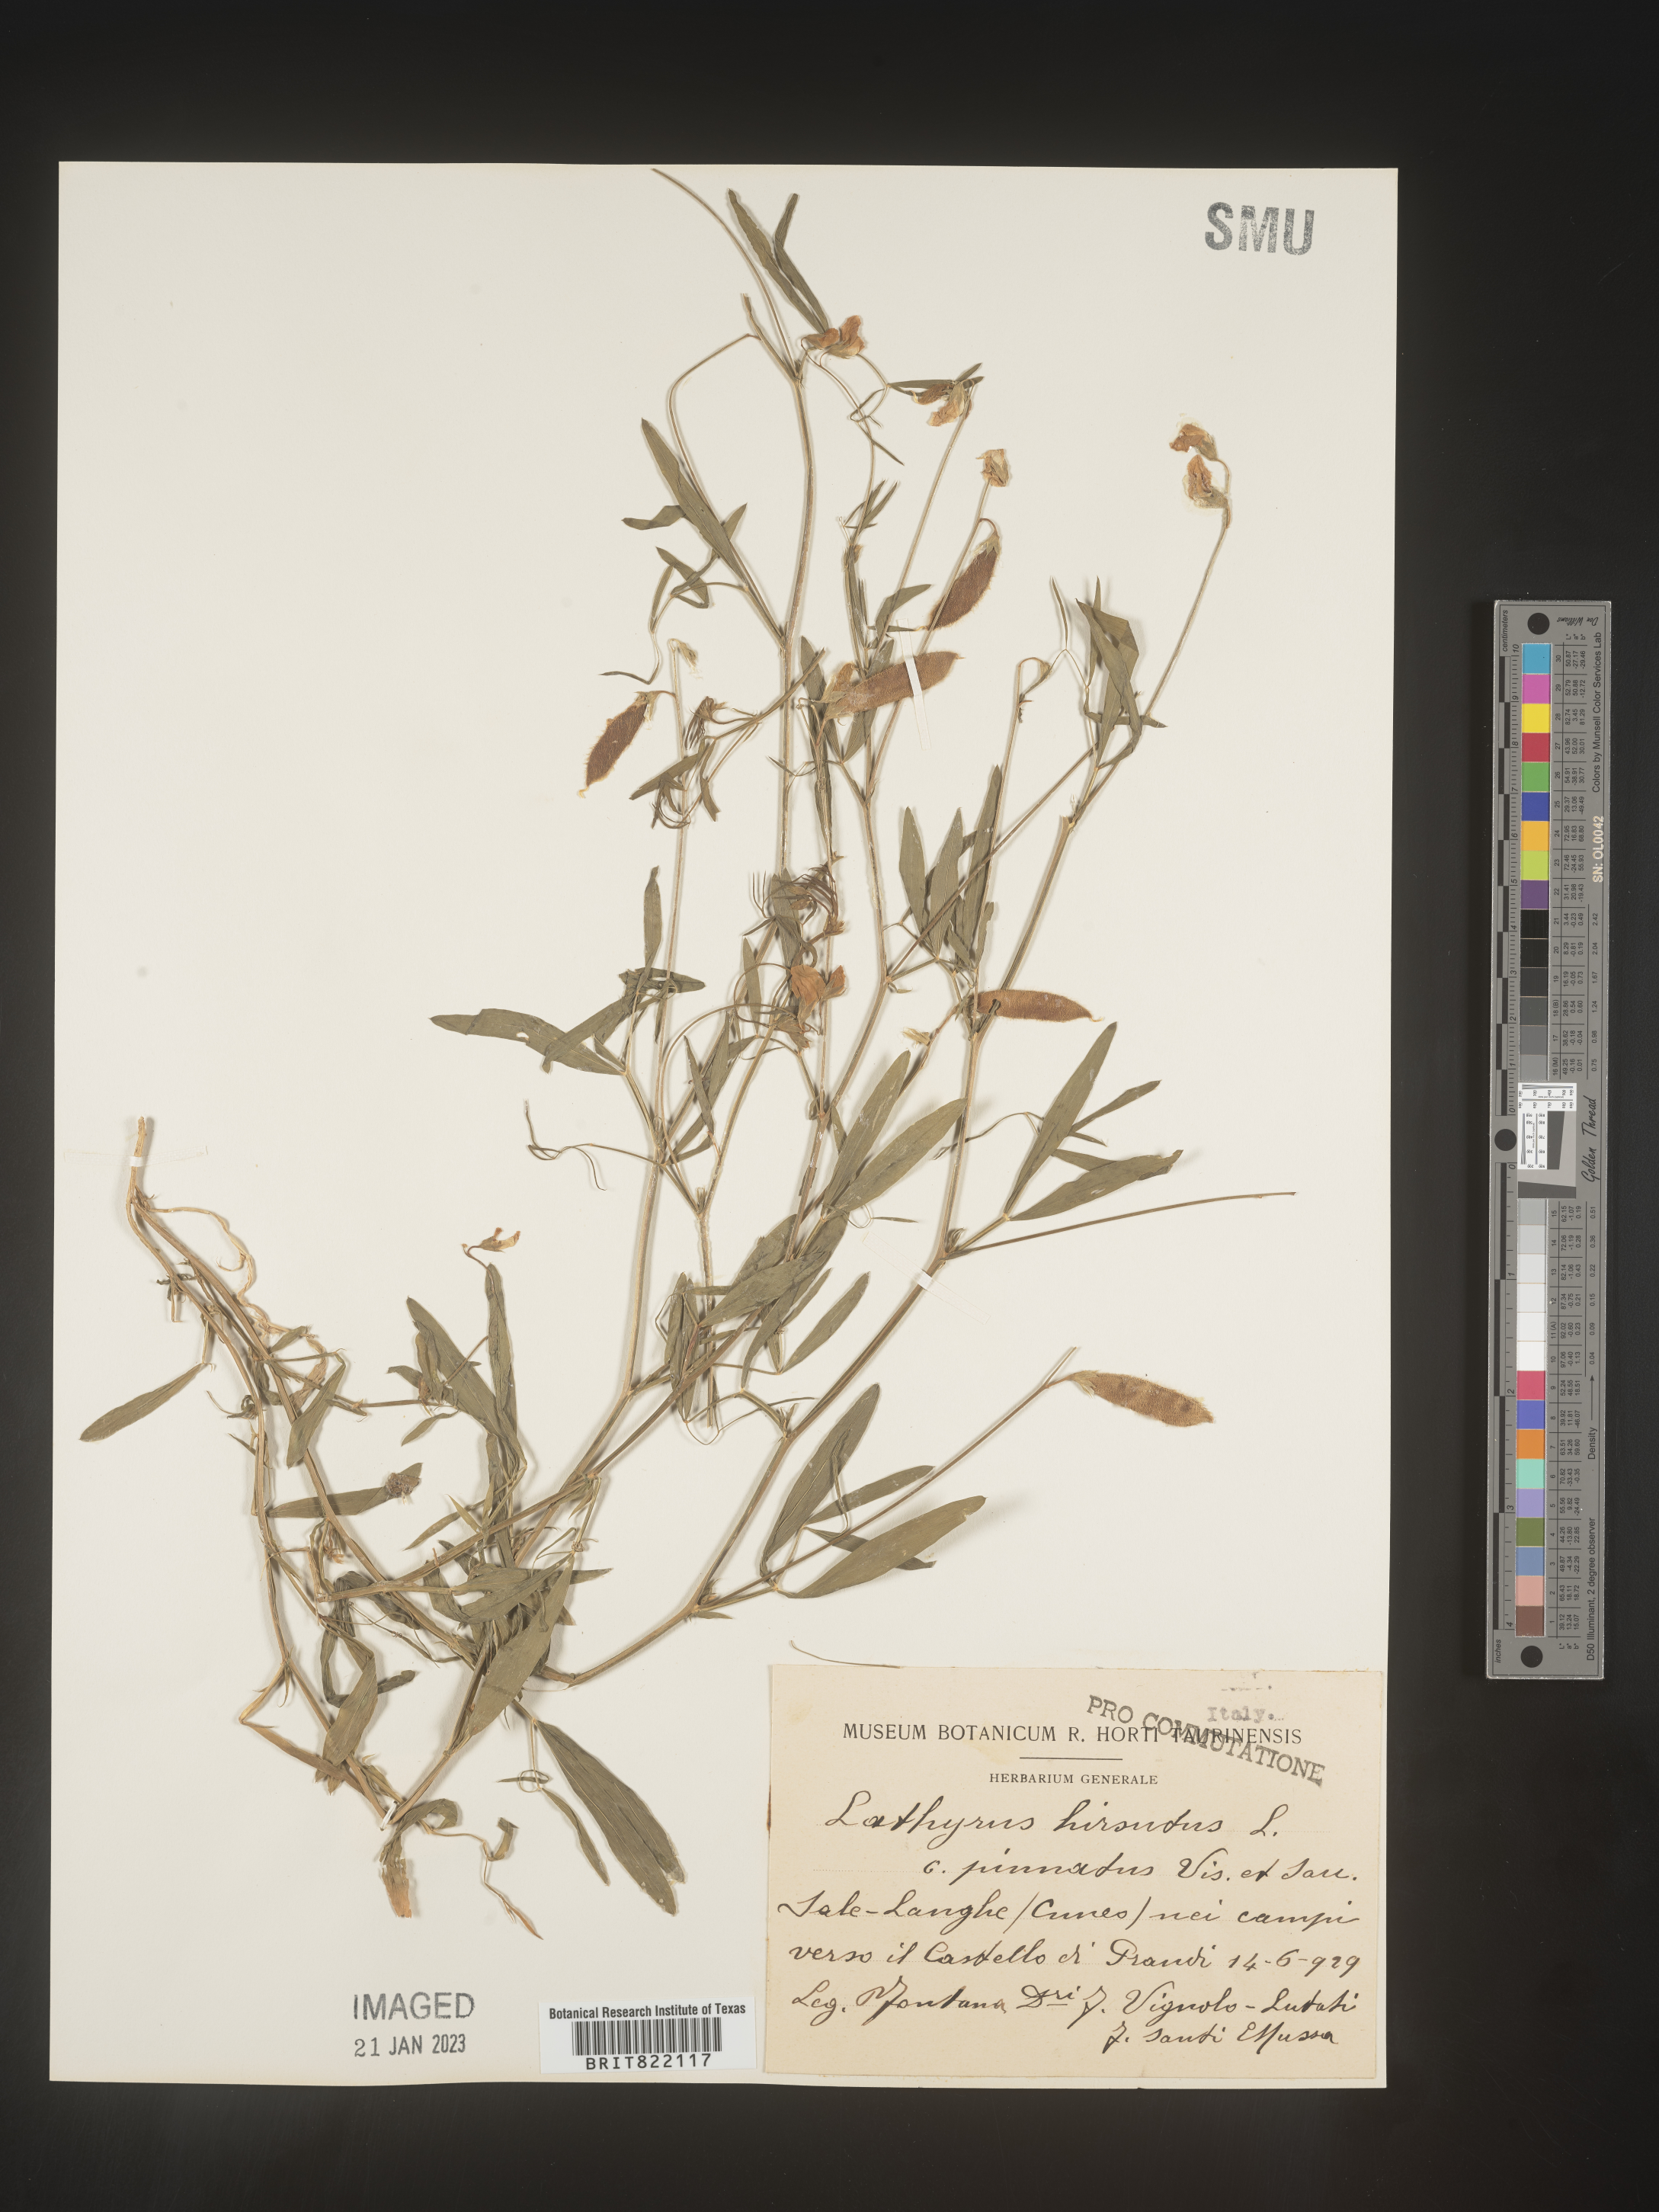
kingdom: Plantae
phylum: Tracheophyta
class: Magnoliopsida
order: Fabales
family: Fabaceae
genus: Lathyrus
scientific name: Lathyrus
